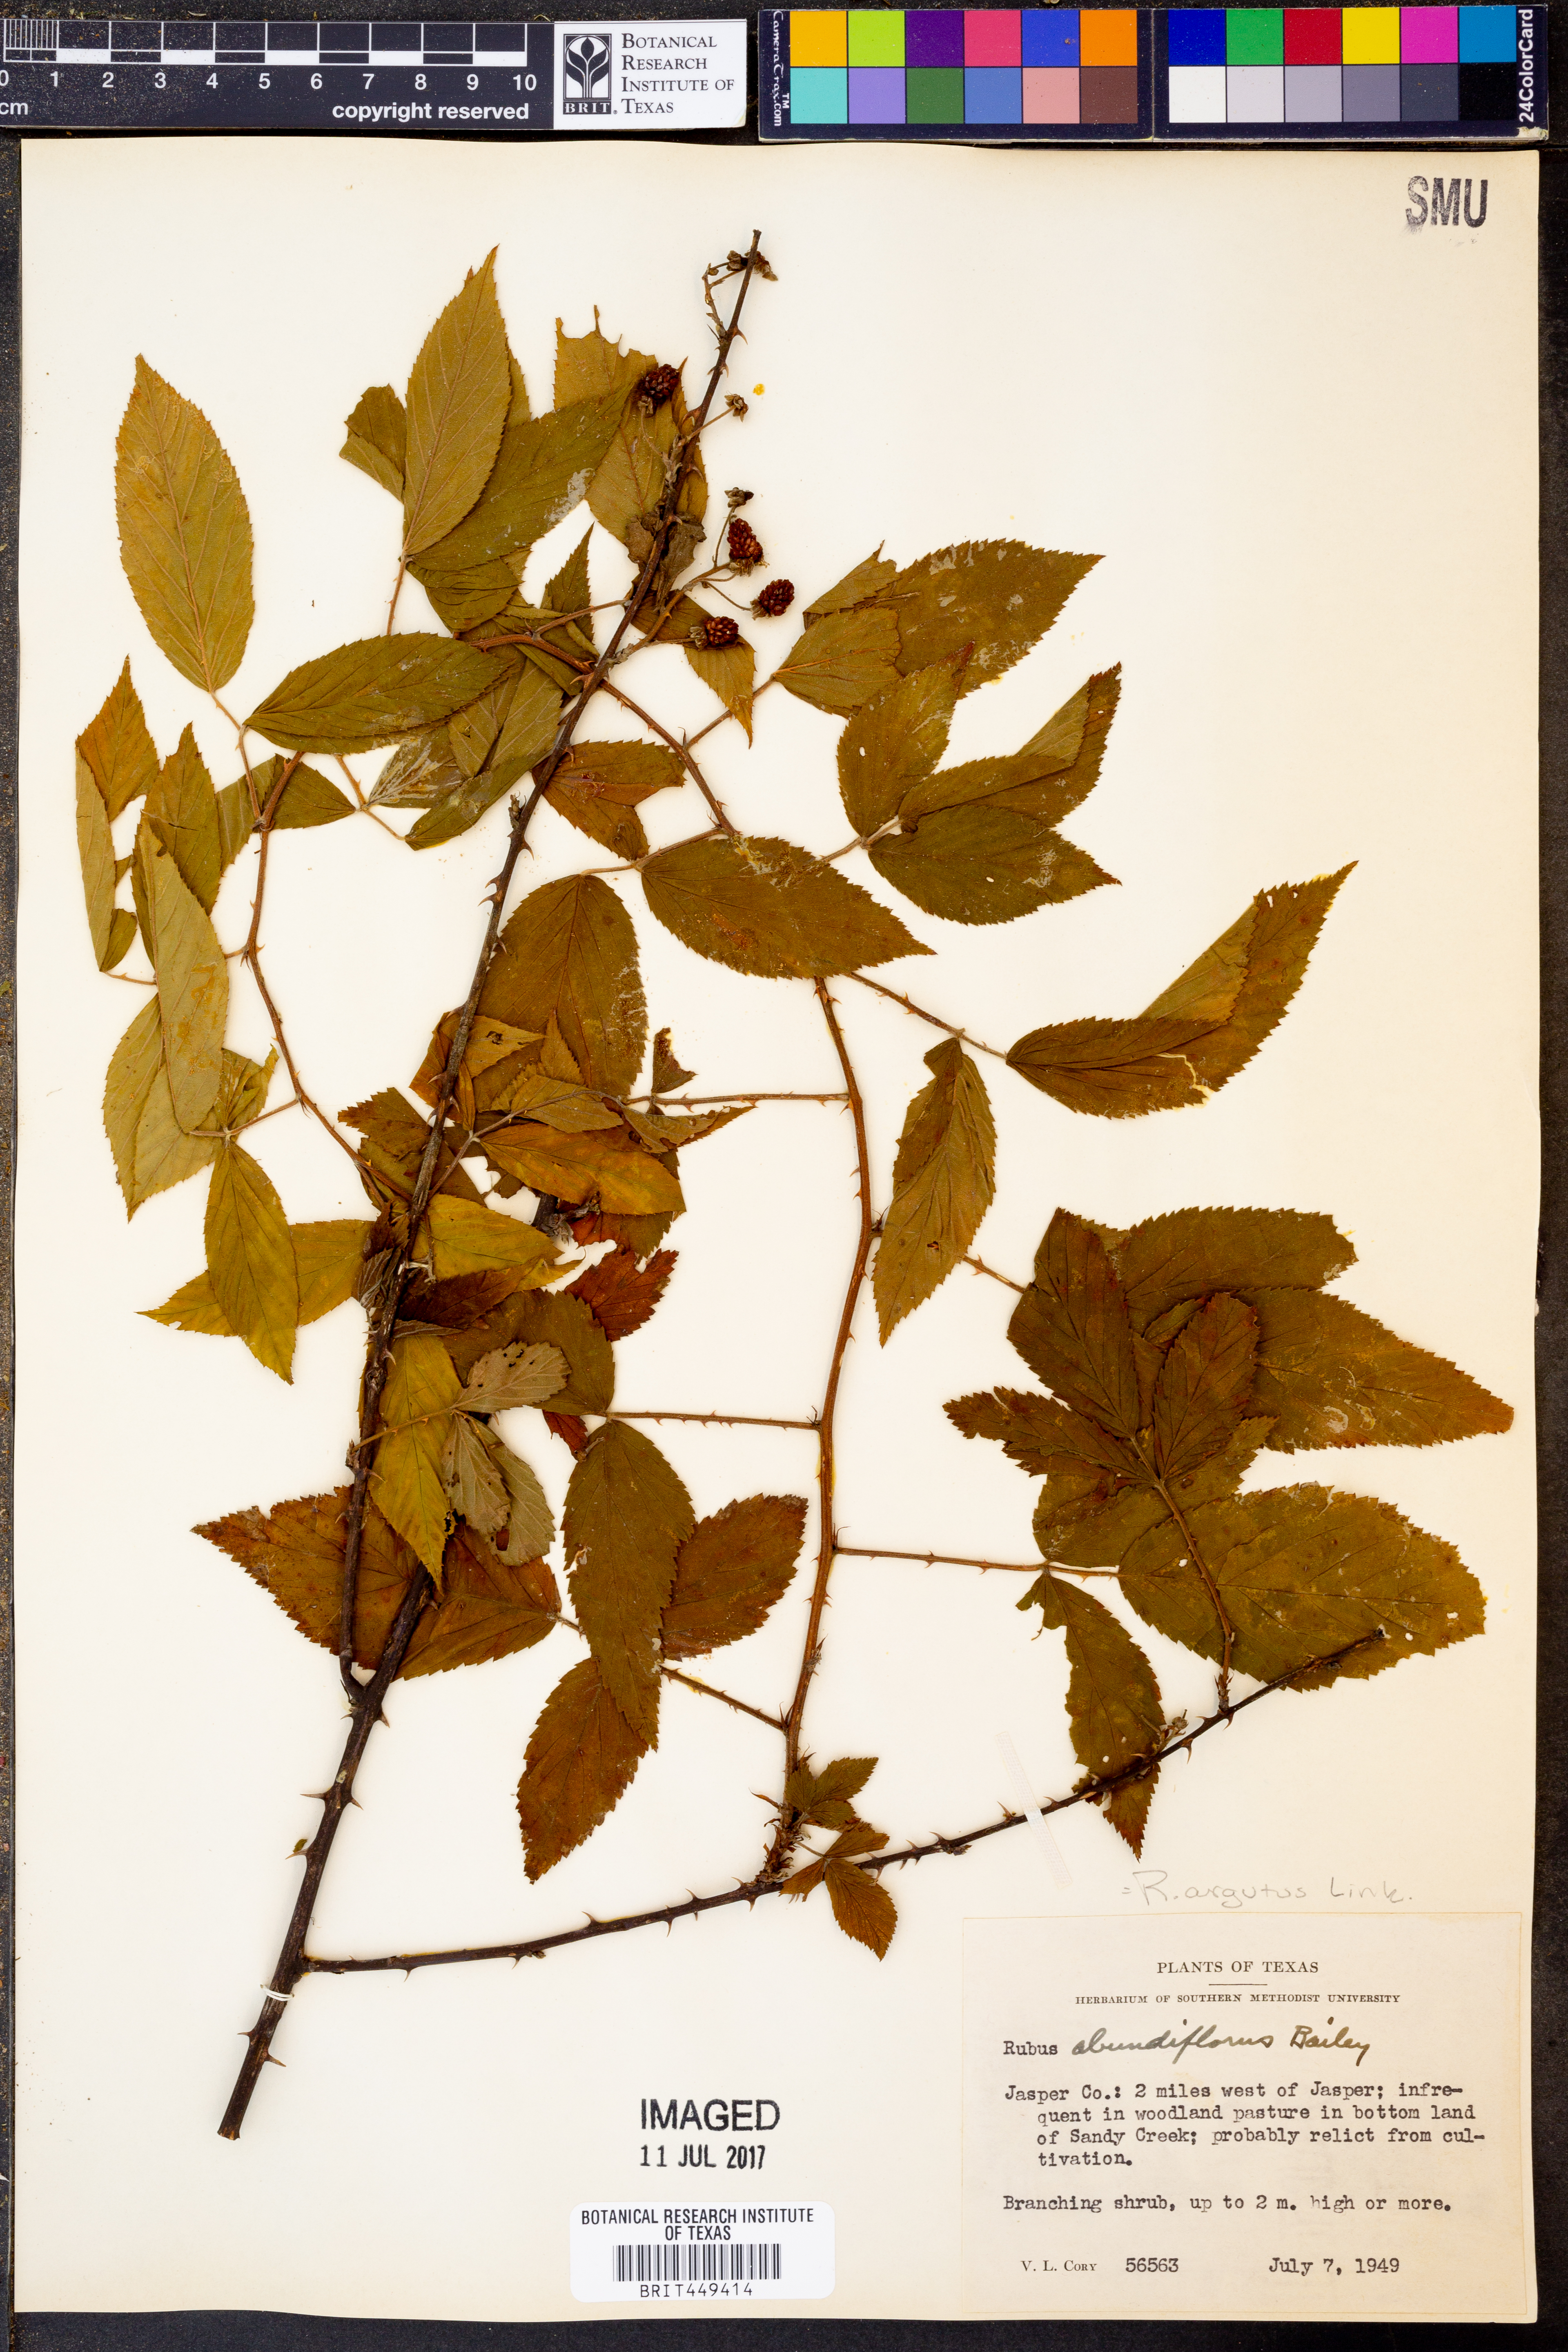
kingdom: Plantae
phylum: Tracheophyta
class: Magnoliopsida
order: Rosales
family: Rosaceae
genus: Rubus
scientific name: Rubus argutus
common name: Sawtooth blackberry
